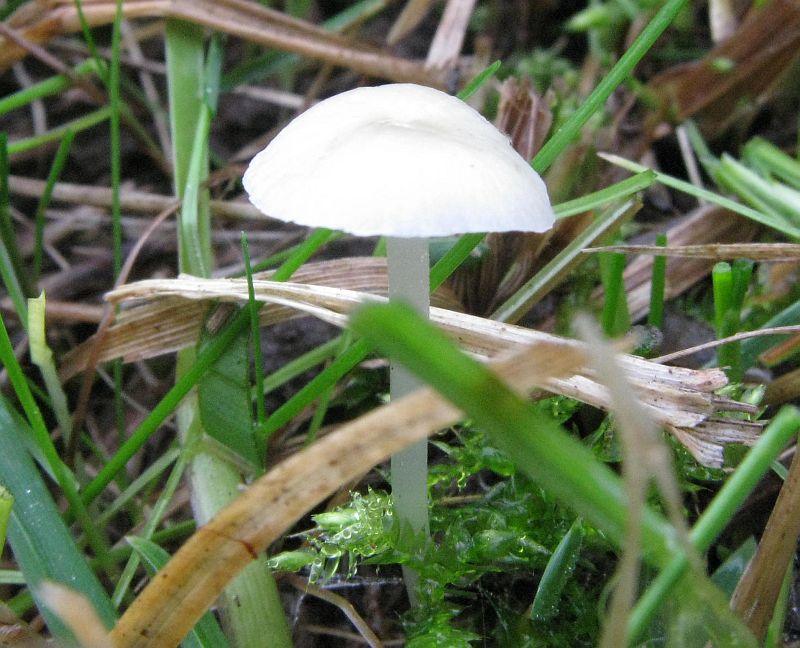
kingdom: Fungi
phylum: Basidiomycota
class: Agaricomycetes
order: Agaricales
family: Mycenaceae
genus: Atheniella
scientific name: Atheniella flavoalba
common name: gulhvid huesvamp
